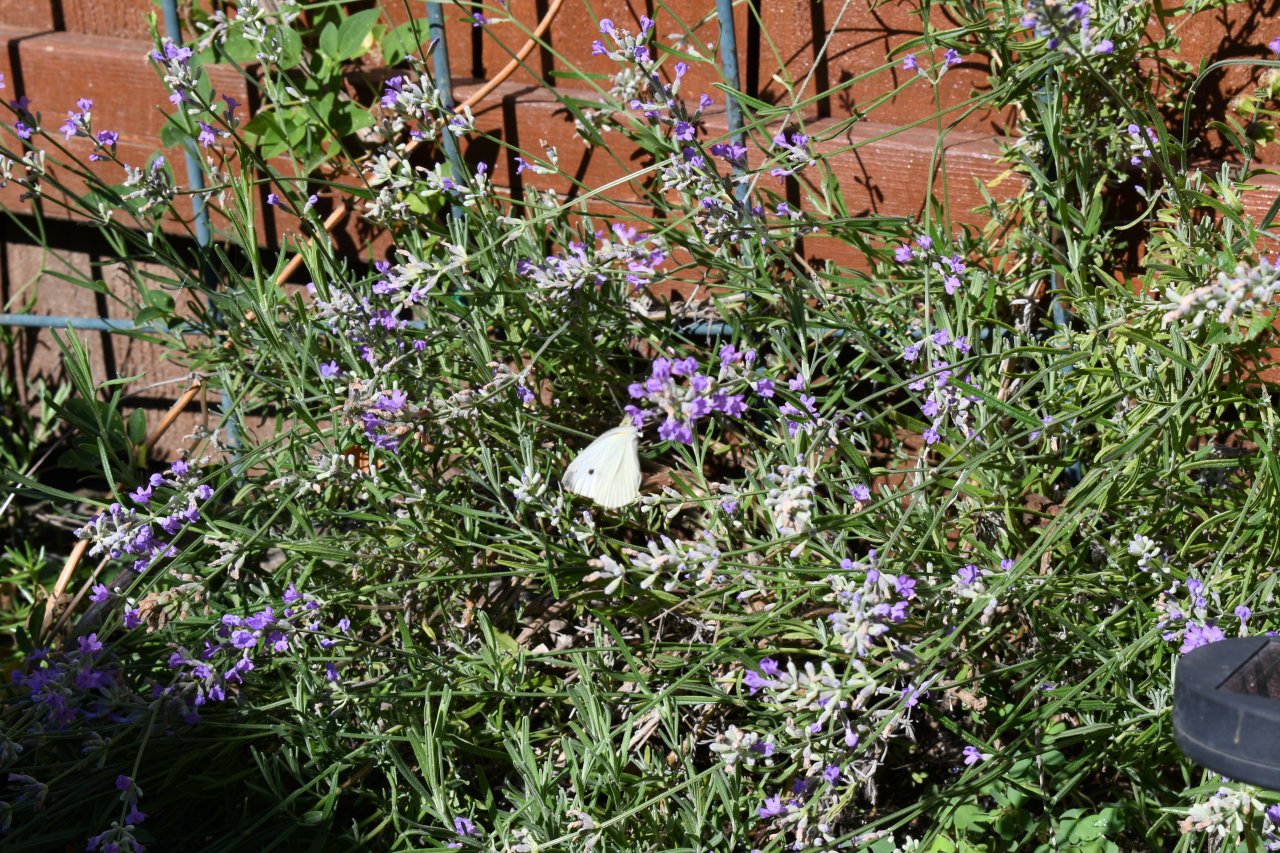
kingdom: Animalia
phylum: Arthropoda
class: Insecta
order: Lepidoptera
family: Pieridae
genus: Pieris
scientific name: Pieris rapae
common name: Cabbage White
